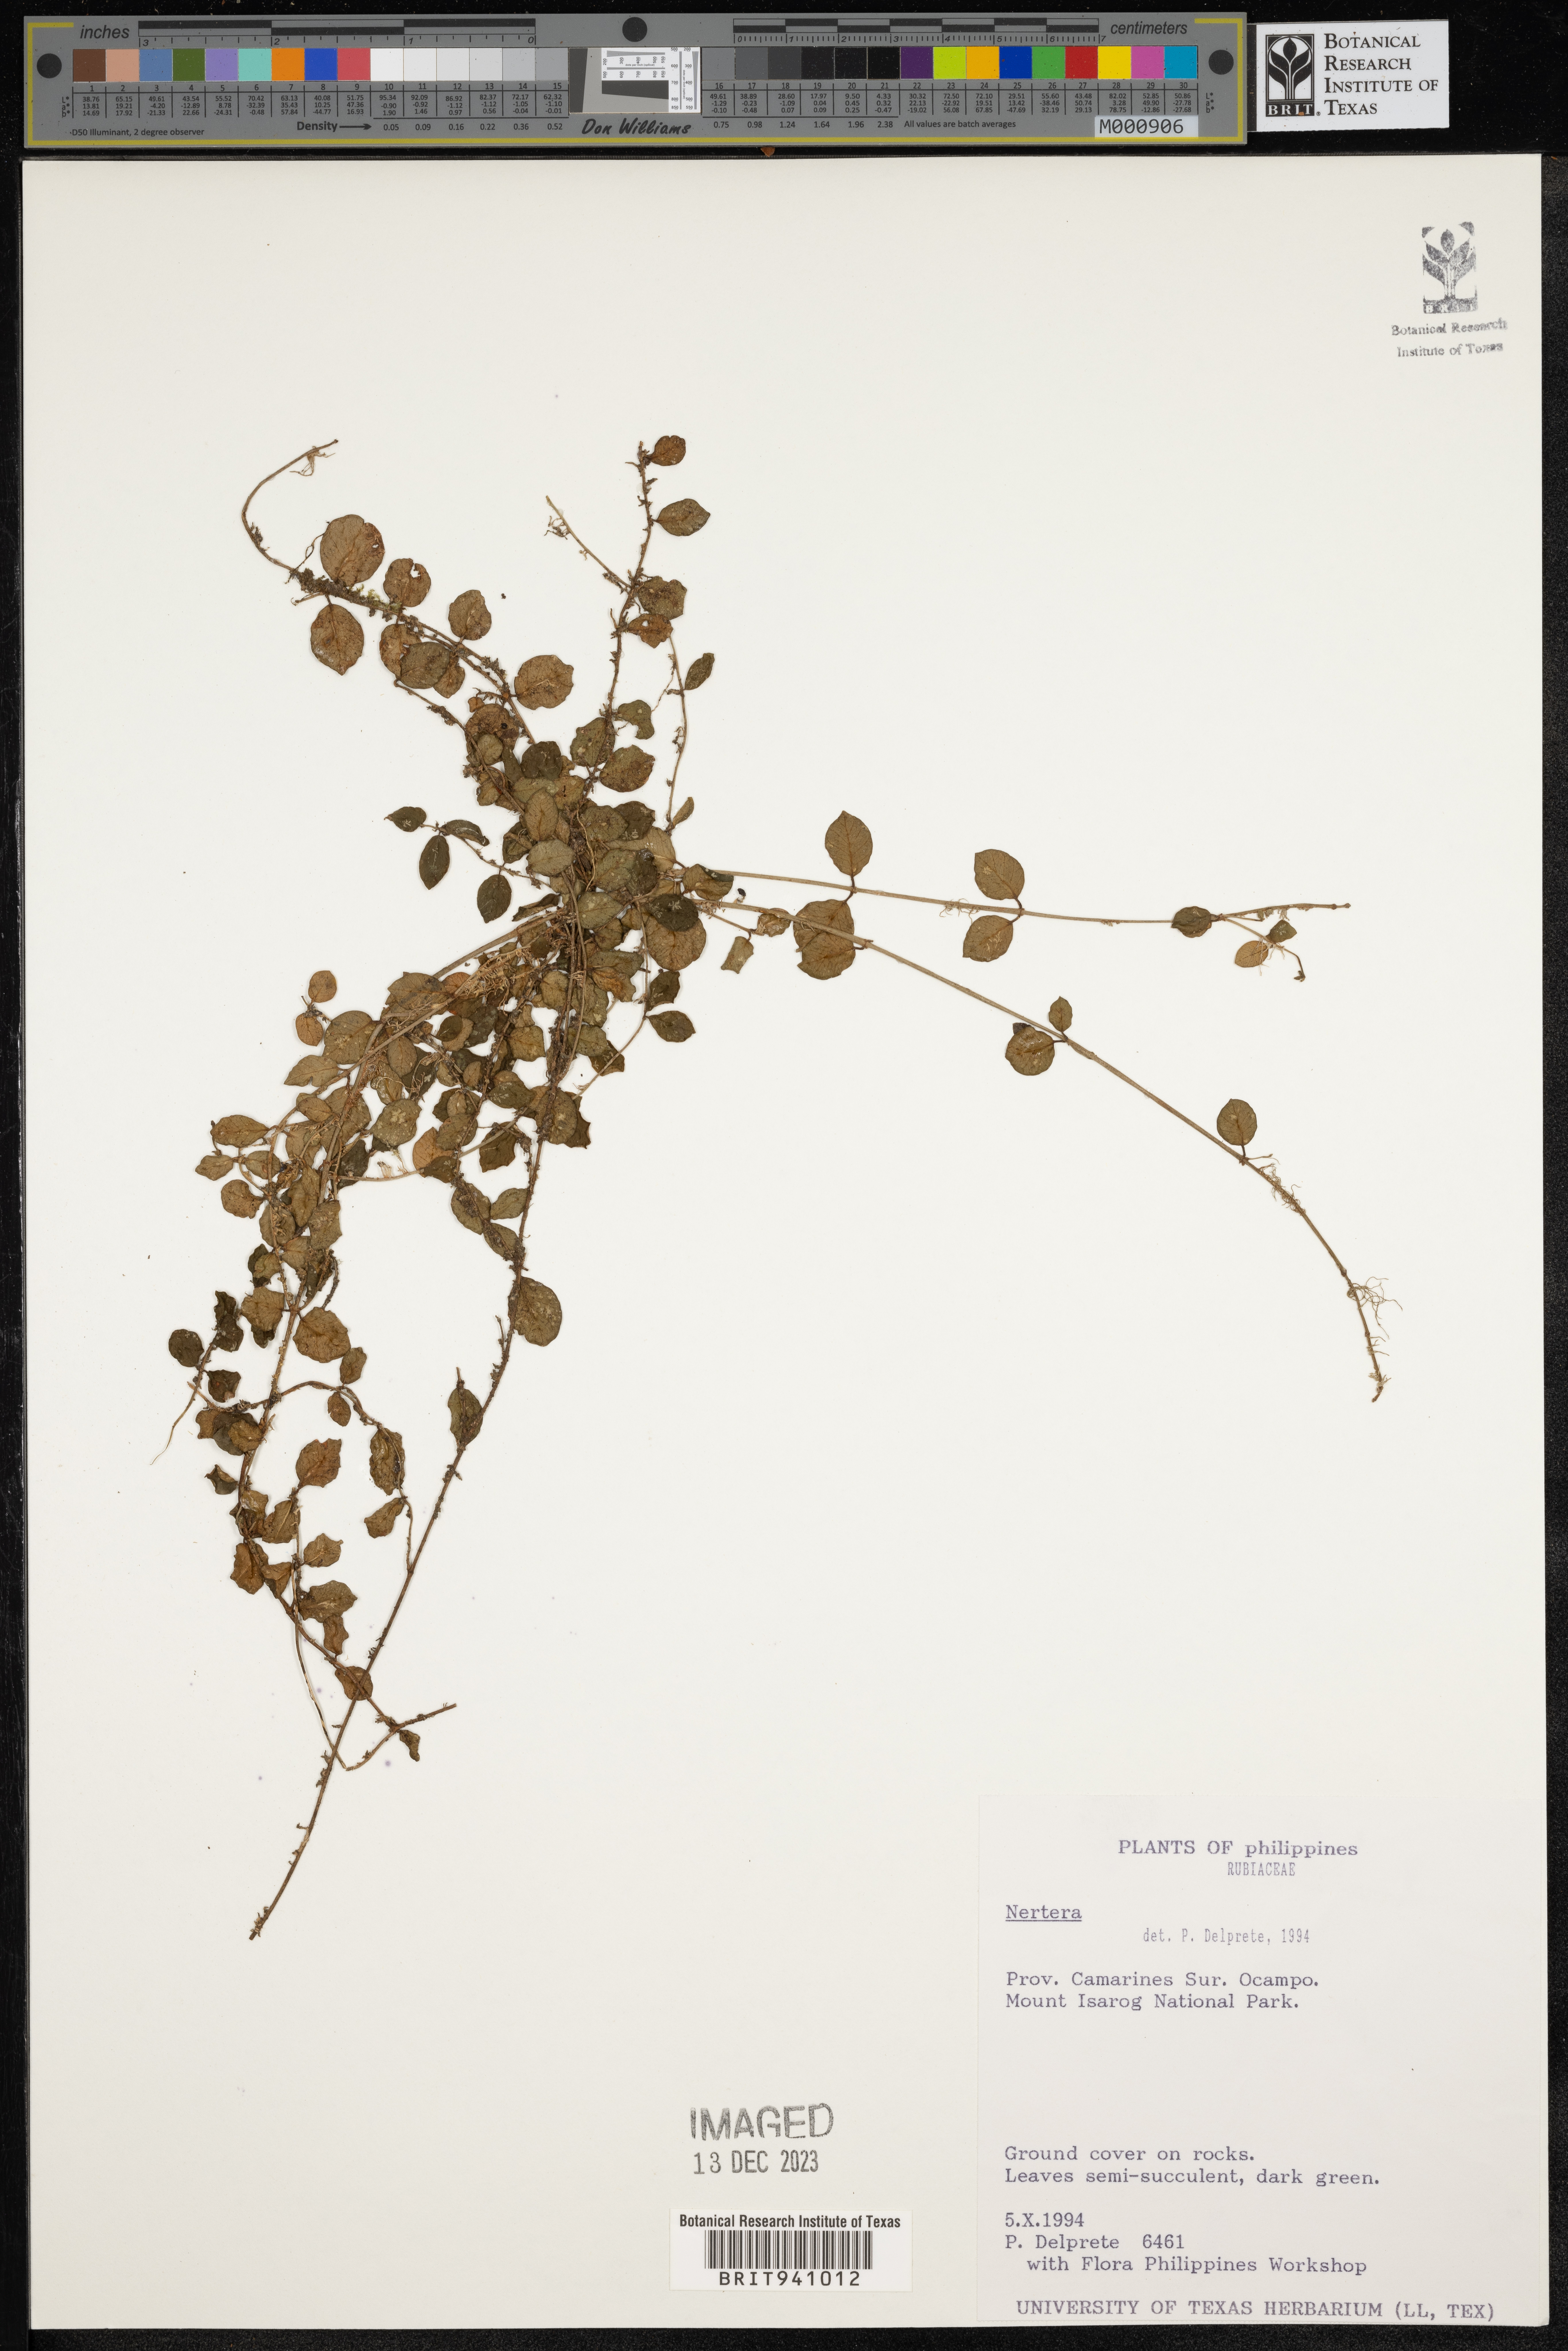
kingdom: Plantae
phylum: Tracheophyta
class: Magnoliopsida
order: Gentianales
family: Rubiaceae
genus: Nertera
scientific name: Nertera
